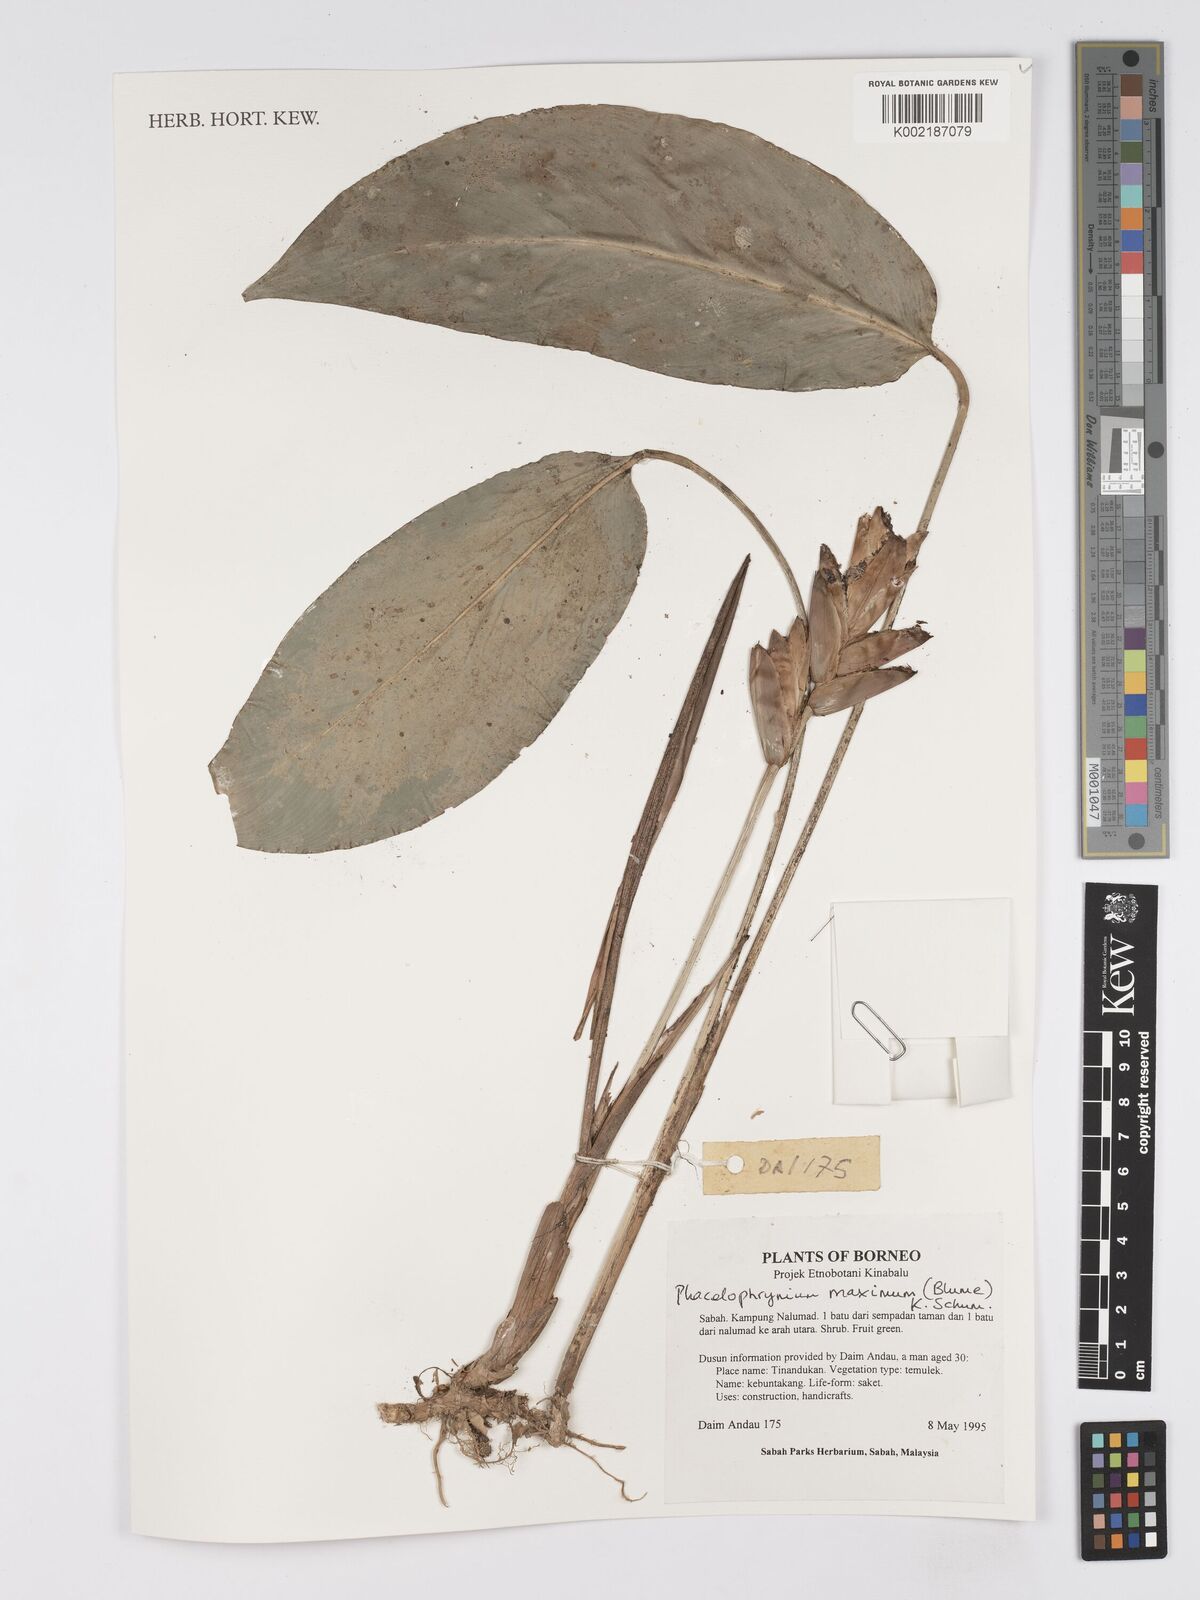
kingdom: Plantae
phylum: Tracheophyta
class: Liliopsida
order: Zingiberales
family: Marantaceae
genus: Phrynium
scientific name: Phrynium maximum
